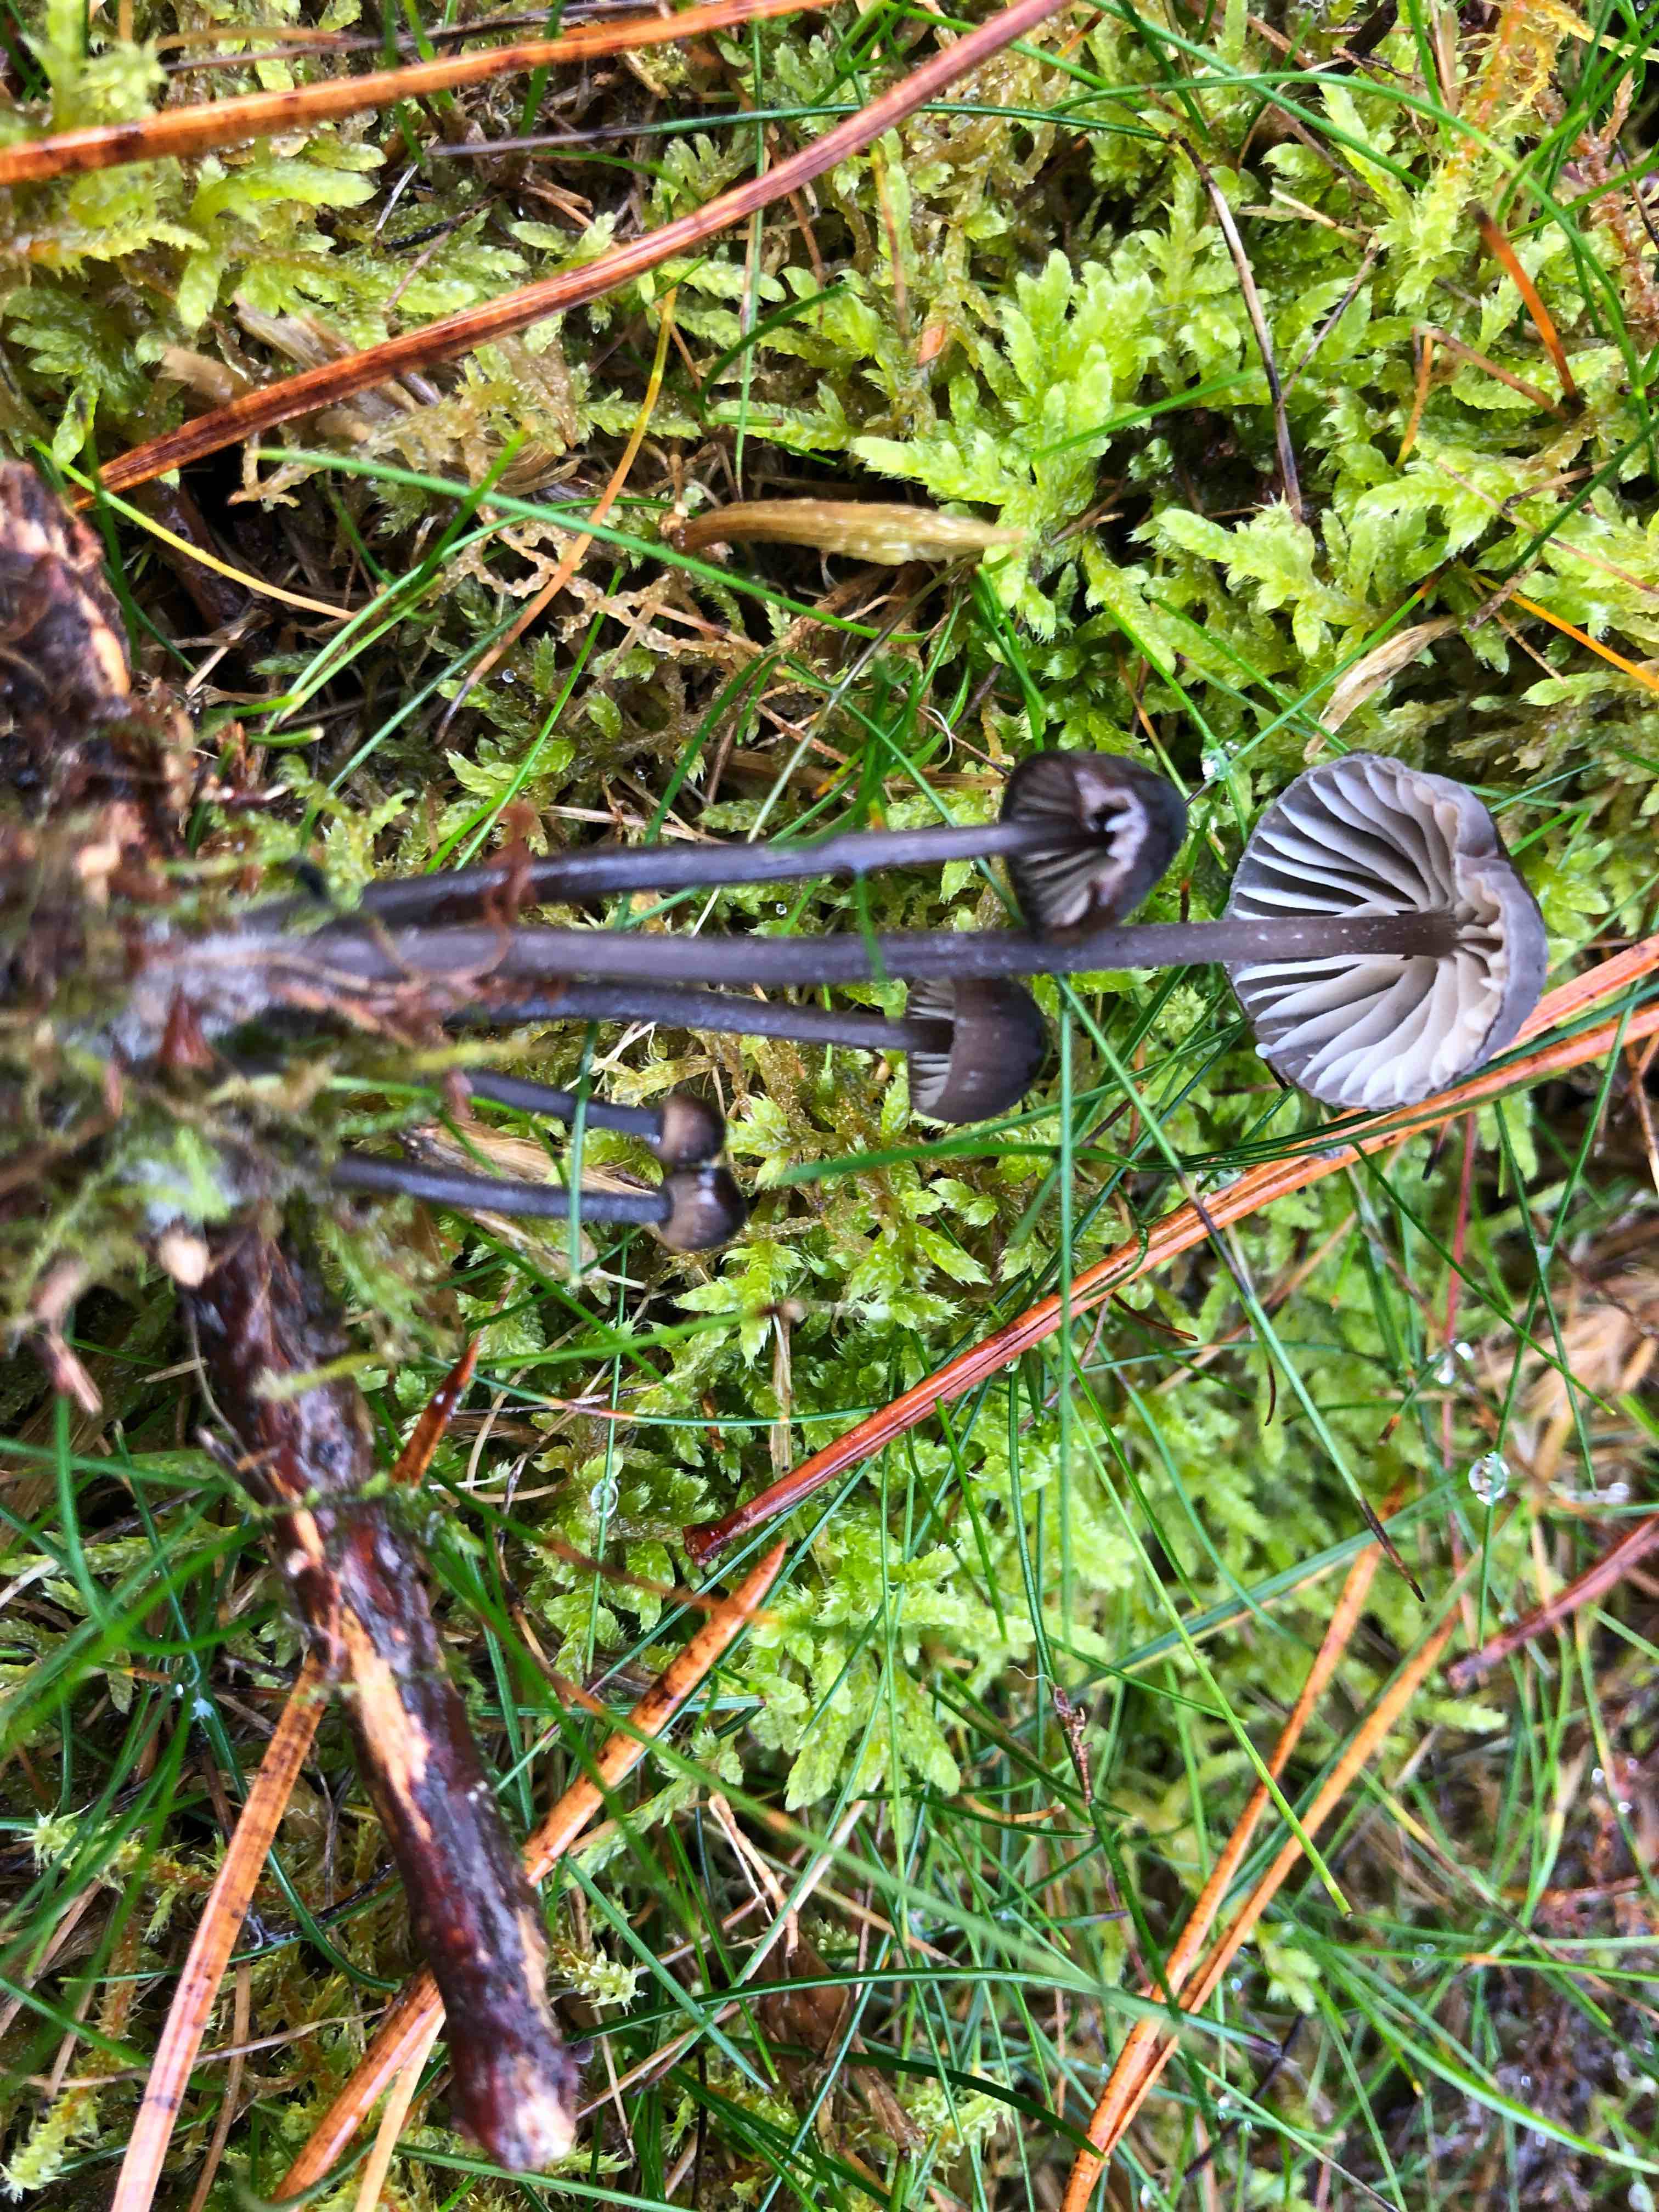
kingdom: Fungi
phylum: Basidiomycota
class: Agaricomycetes
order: Agaricales
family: Mycenaceae
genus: Mycena
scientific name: Mycena galopus
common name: hvidmælket huesvamp
